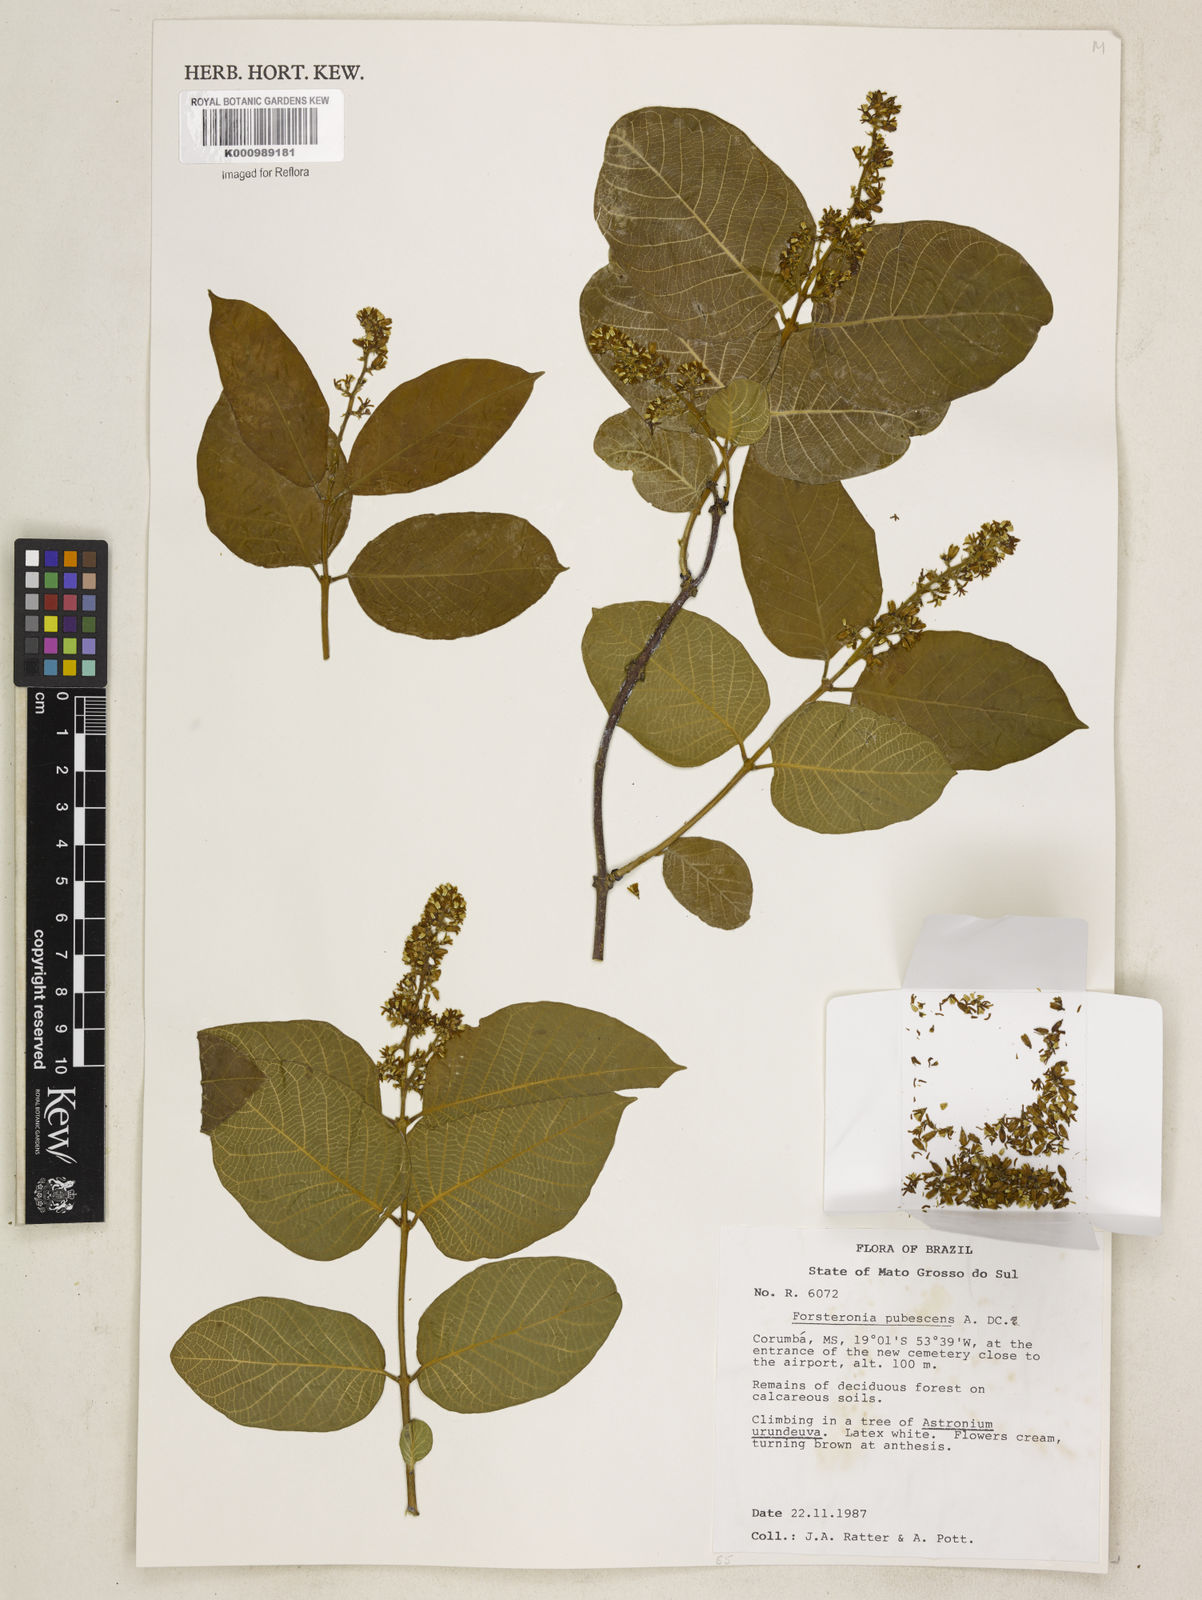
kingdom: Plantae
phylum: Tracheophyta
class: Magnoliopsida
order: Gentianales
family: Apocynaceae
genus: Forsteronia
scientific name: Forsteronia
